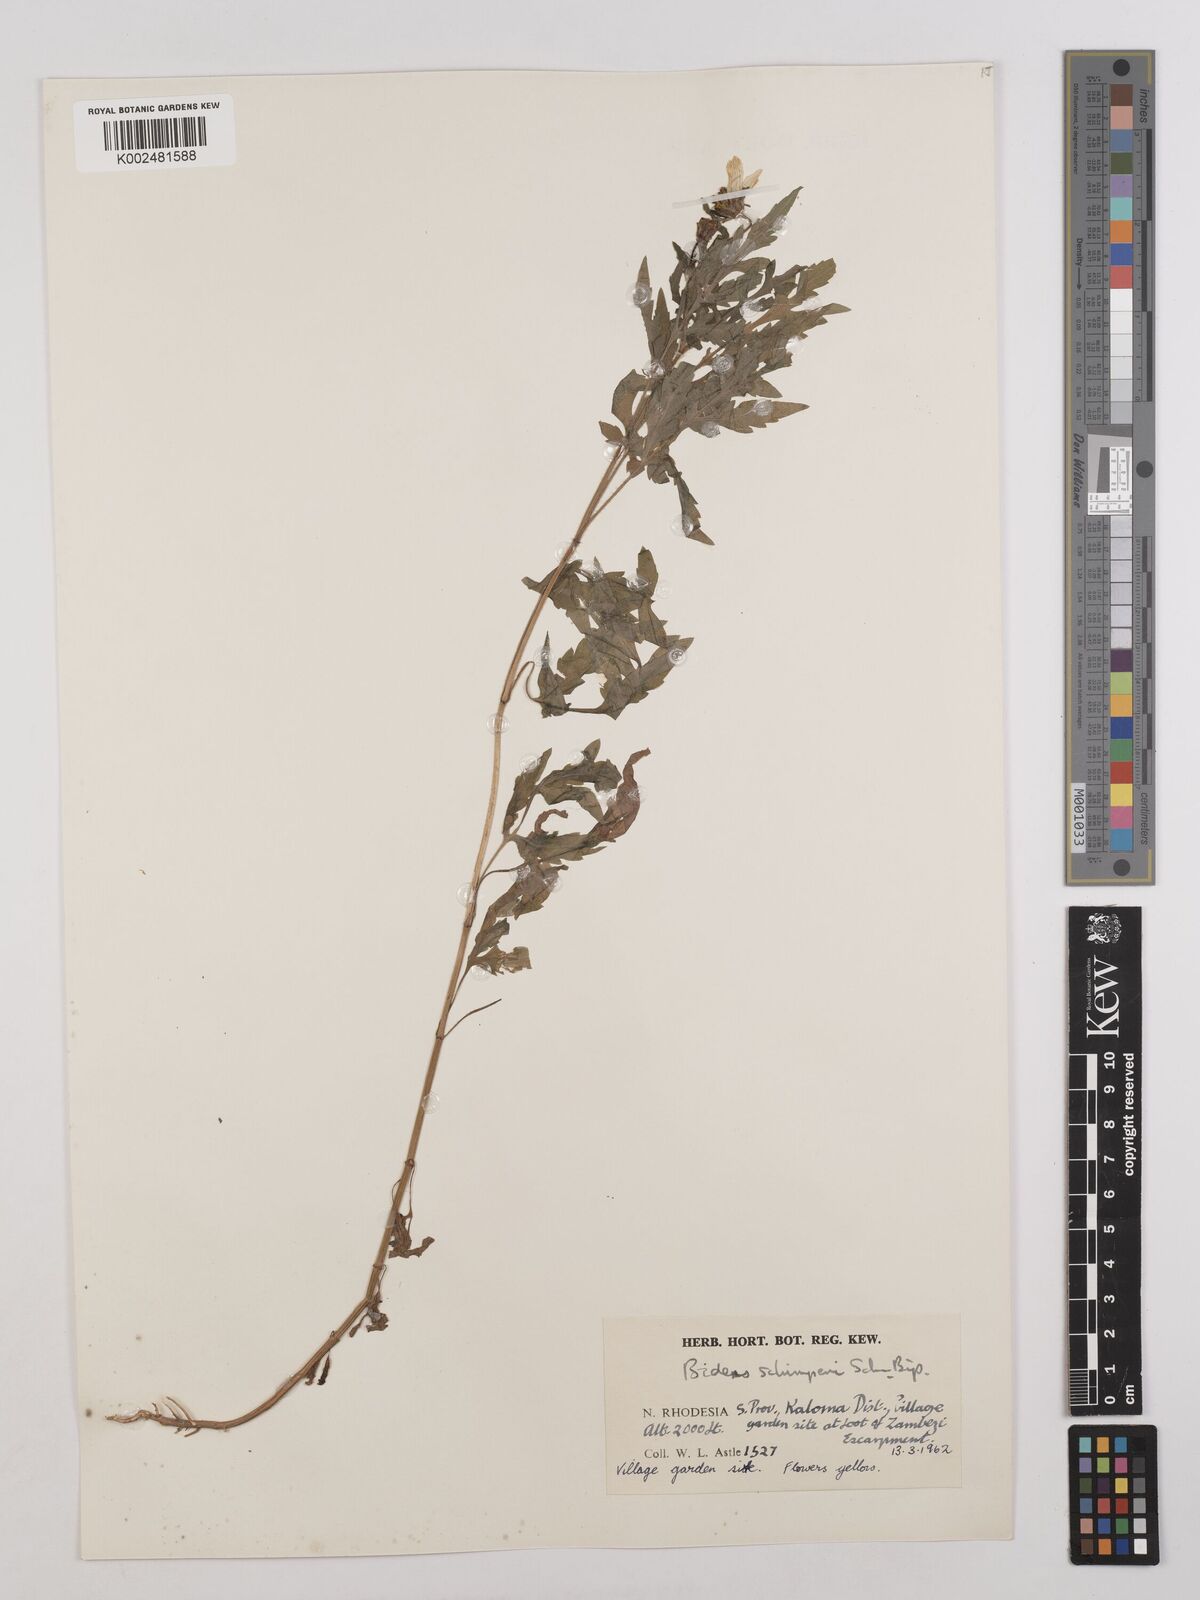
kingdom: Plantae
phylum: Tracheophyta
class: Magnoliopsida
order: Asterales
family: Asteraceae
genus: Bidens
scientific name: Bidens schimperi
